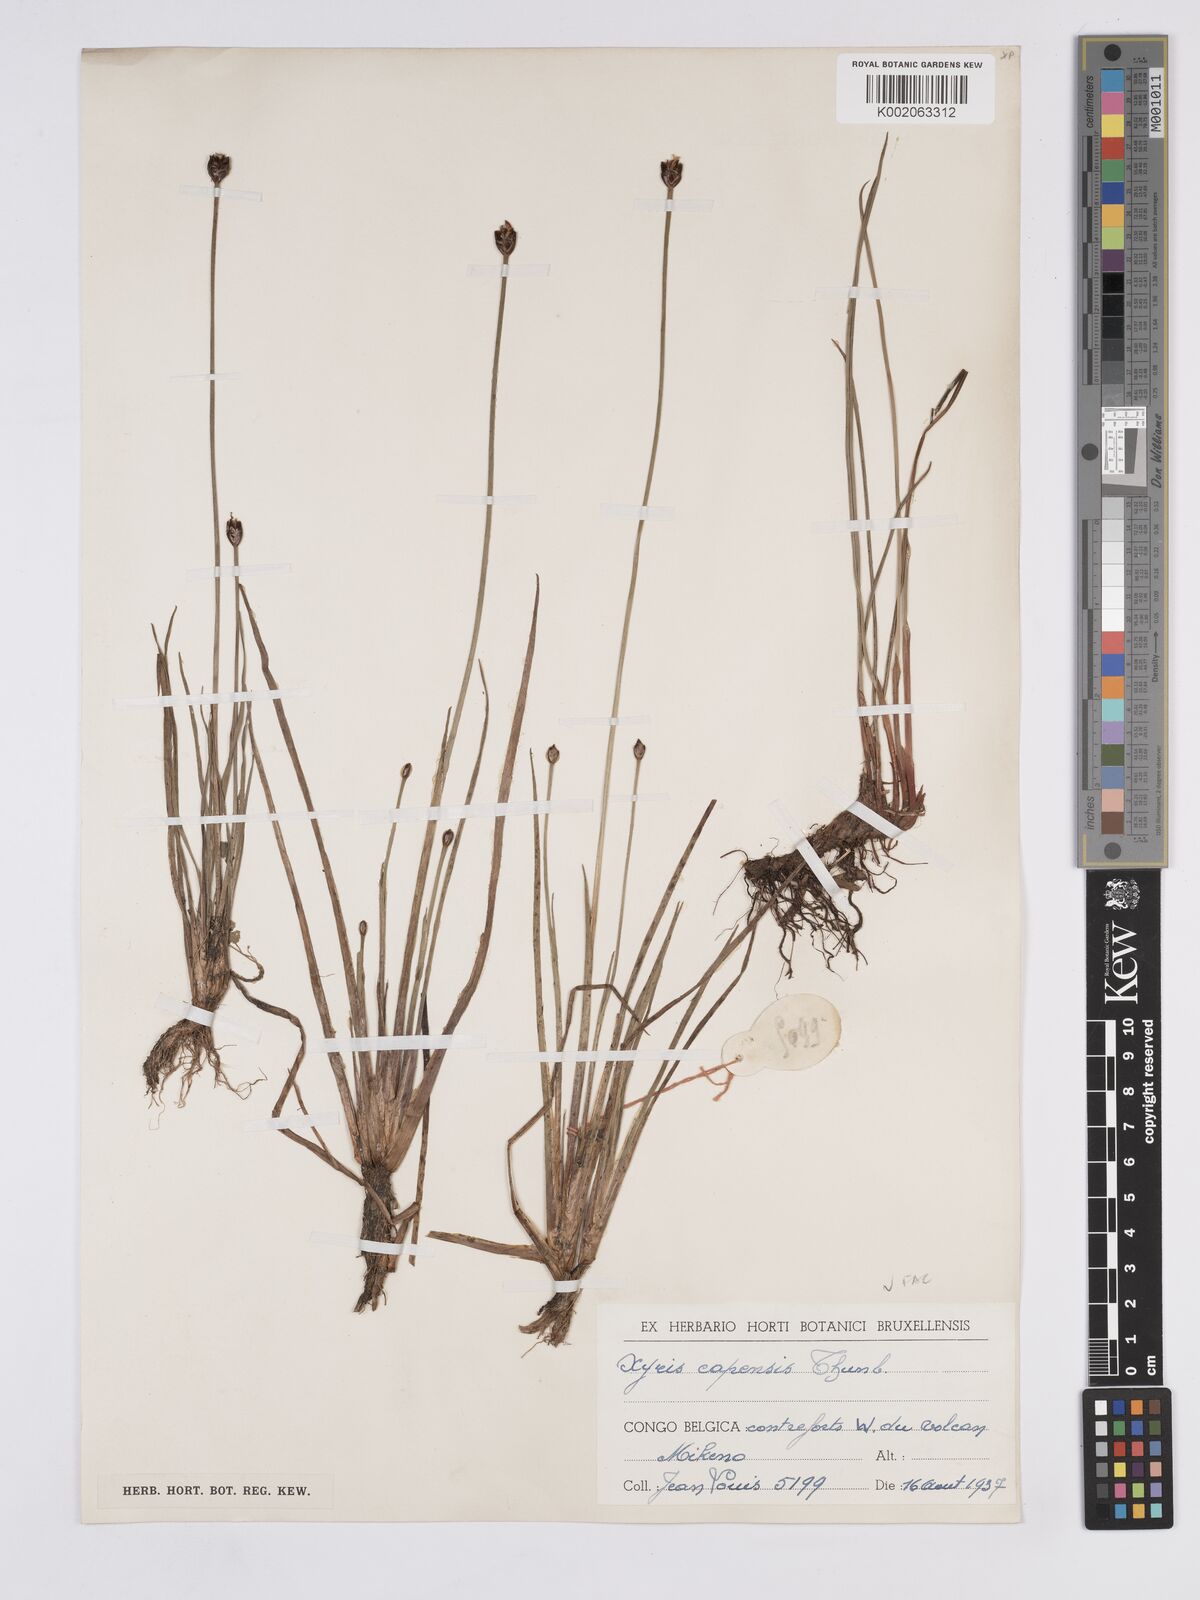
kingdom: Plantae
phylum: Tracheophyta
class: Liliopsida
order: Poales
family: Xyridaceae
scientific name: Xyridaceae
